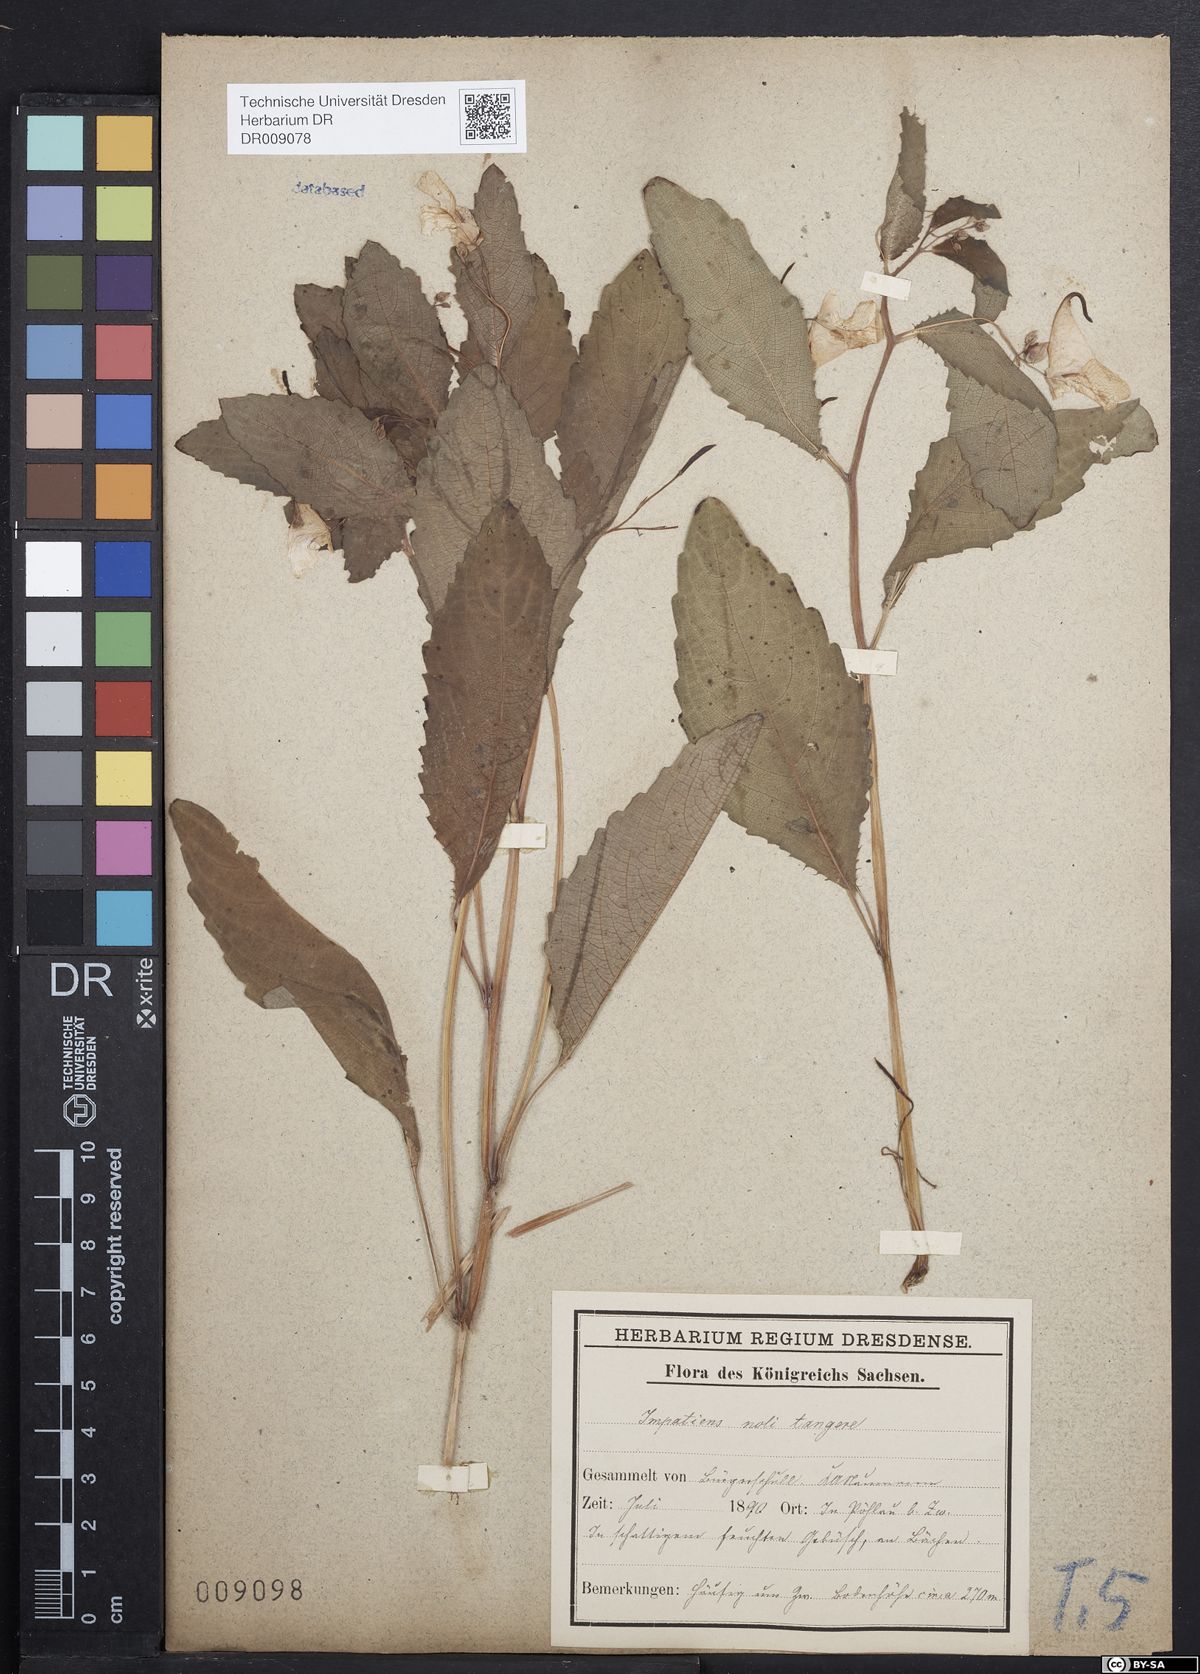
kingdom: Plantae
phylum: Tracheophyta
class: Magnoliopsida
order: Ericales
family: Balsaminaceae
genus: Impatiens
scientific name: Impatiens noli-tangere
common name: Touch-me-not balsam
